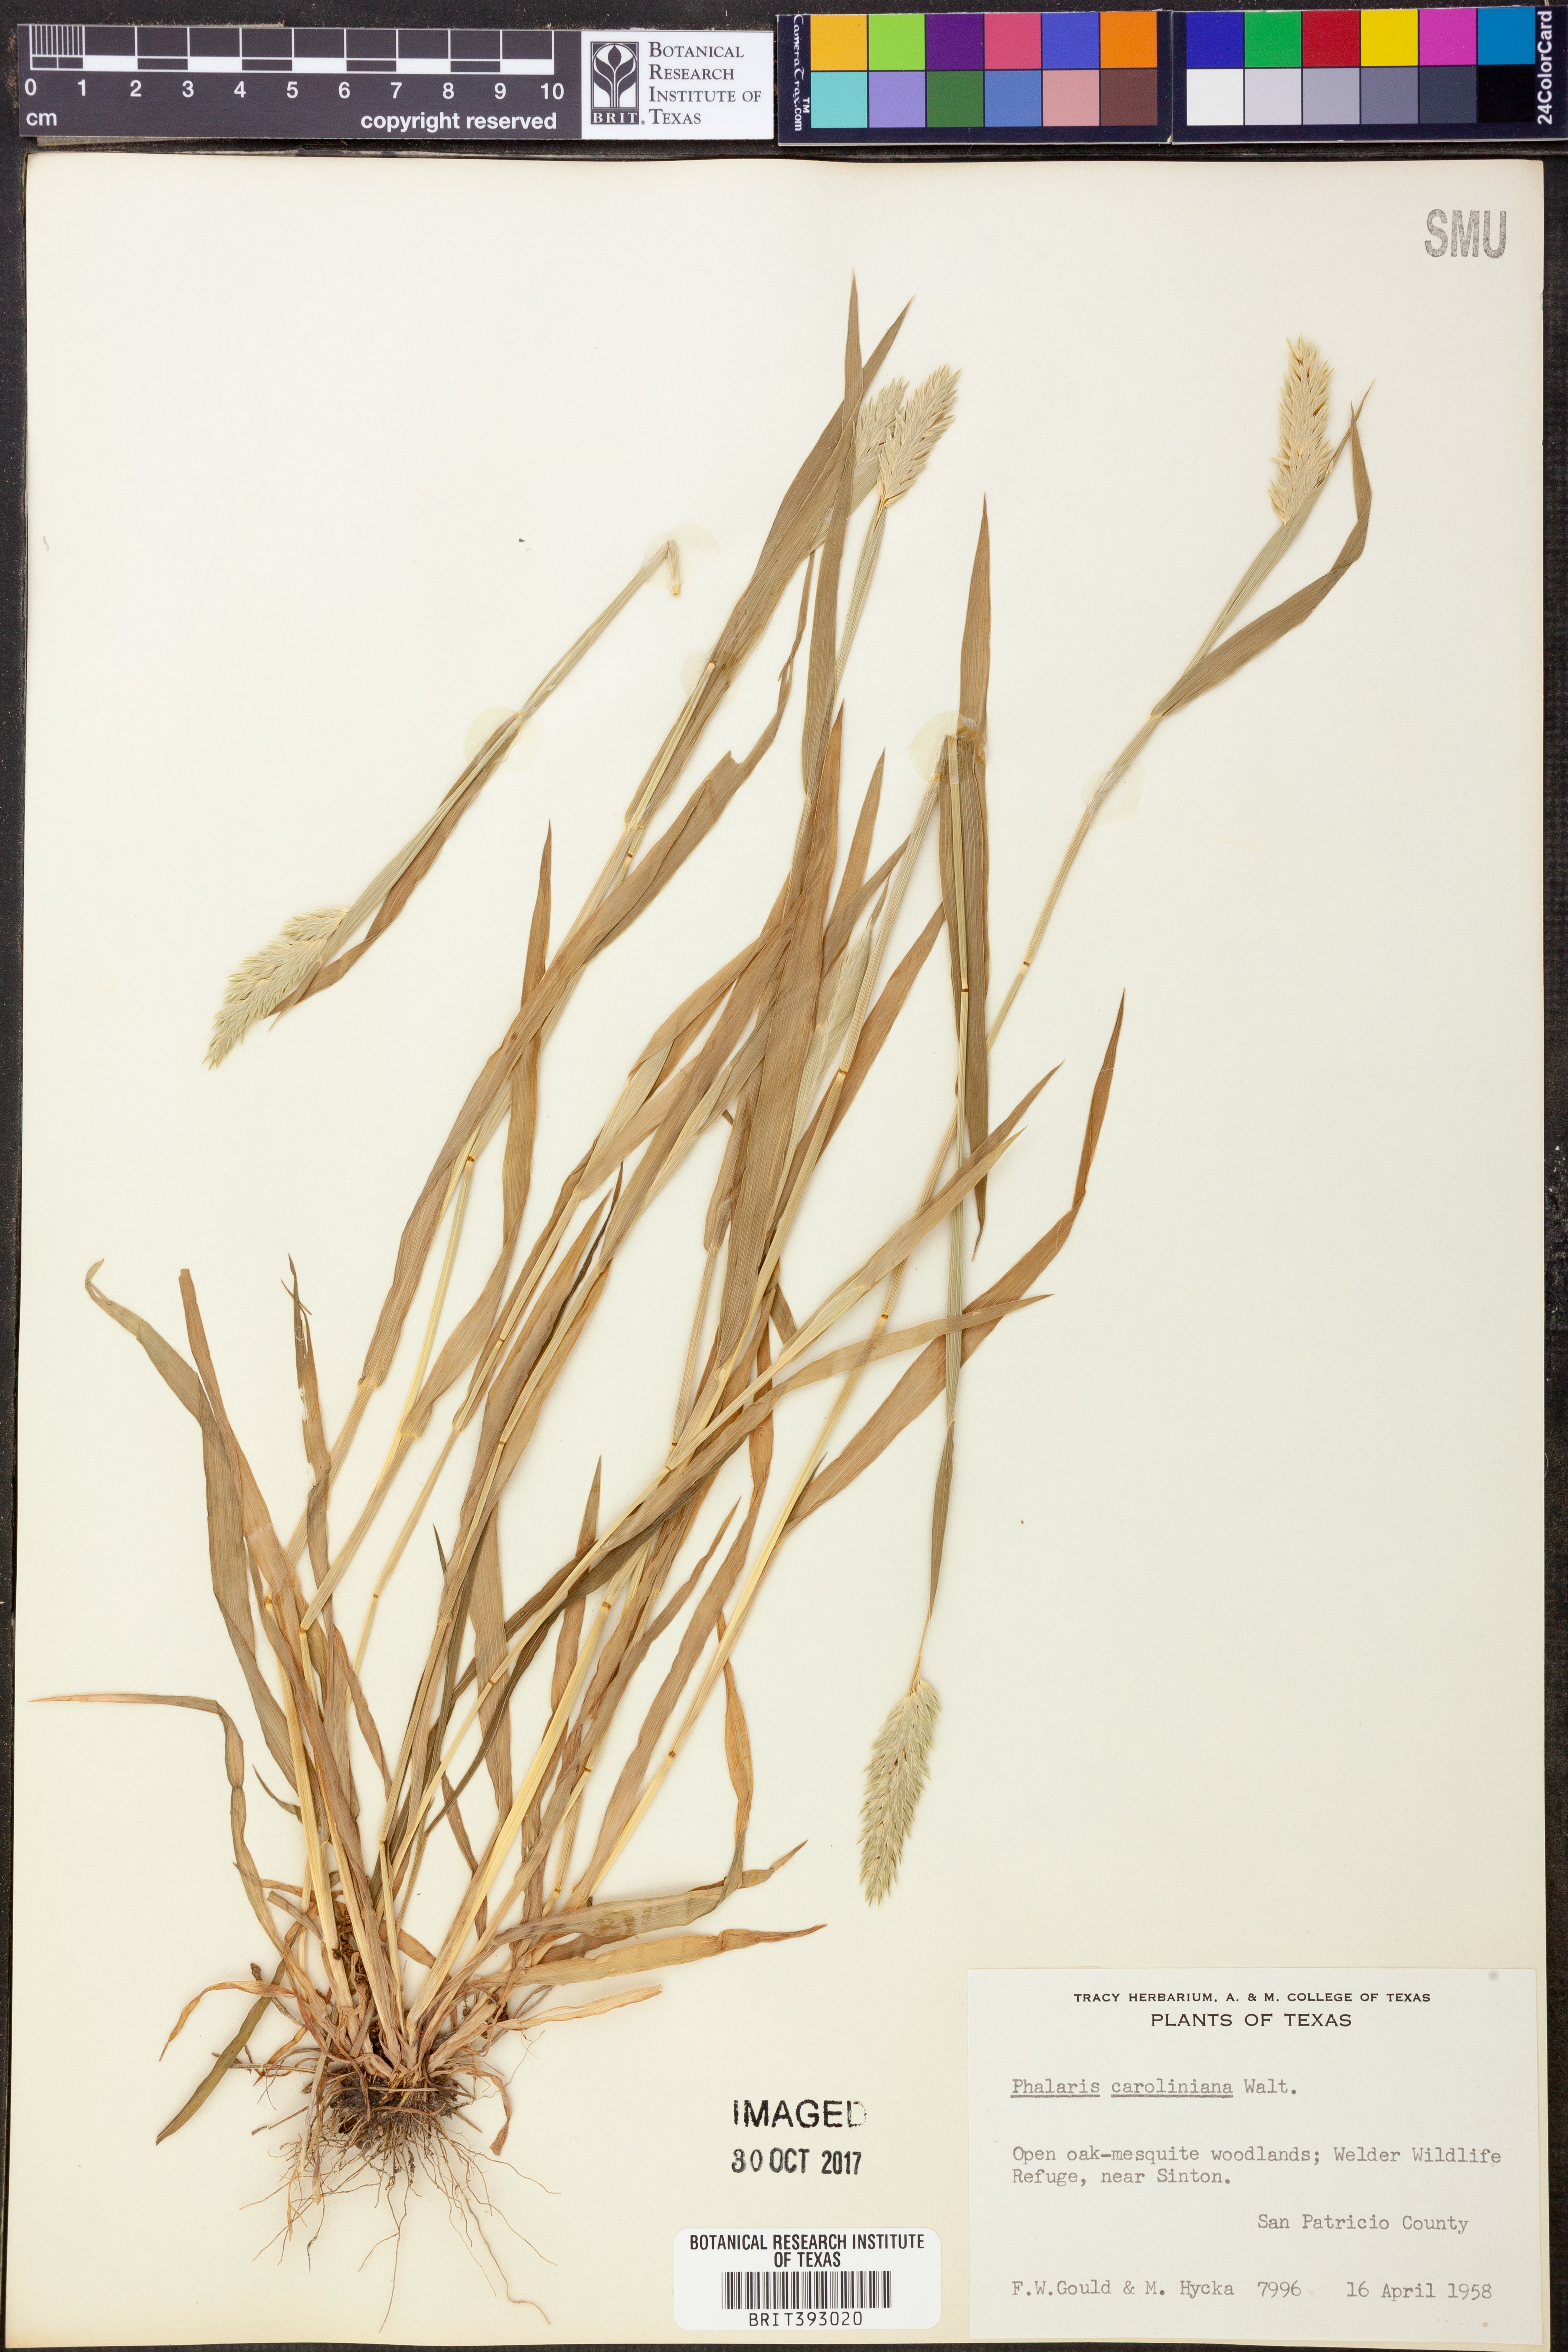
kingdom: Plantae
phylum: Tracheophyta
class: Liliopsida
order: Poales
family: Poaceae
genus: Phalaris
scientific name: Phalaris caroliniana
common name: May grass
